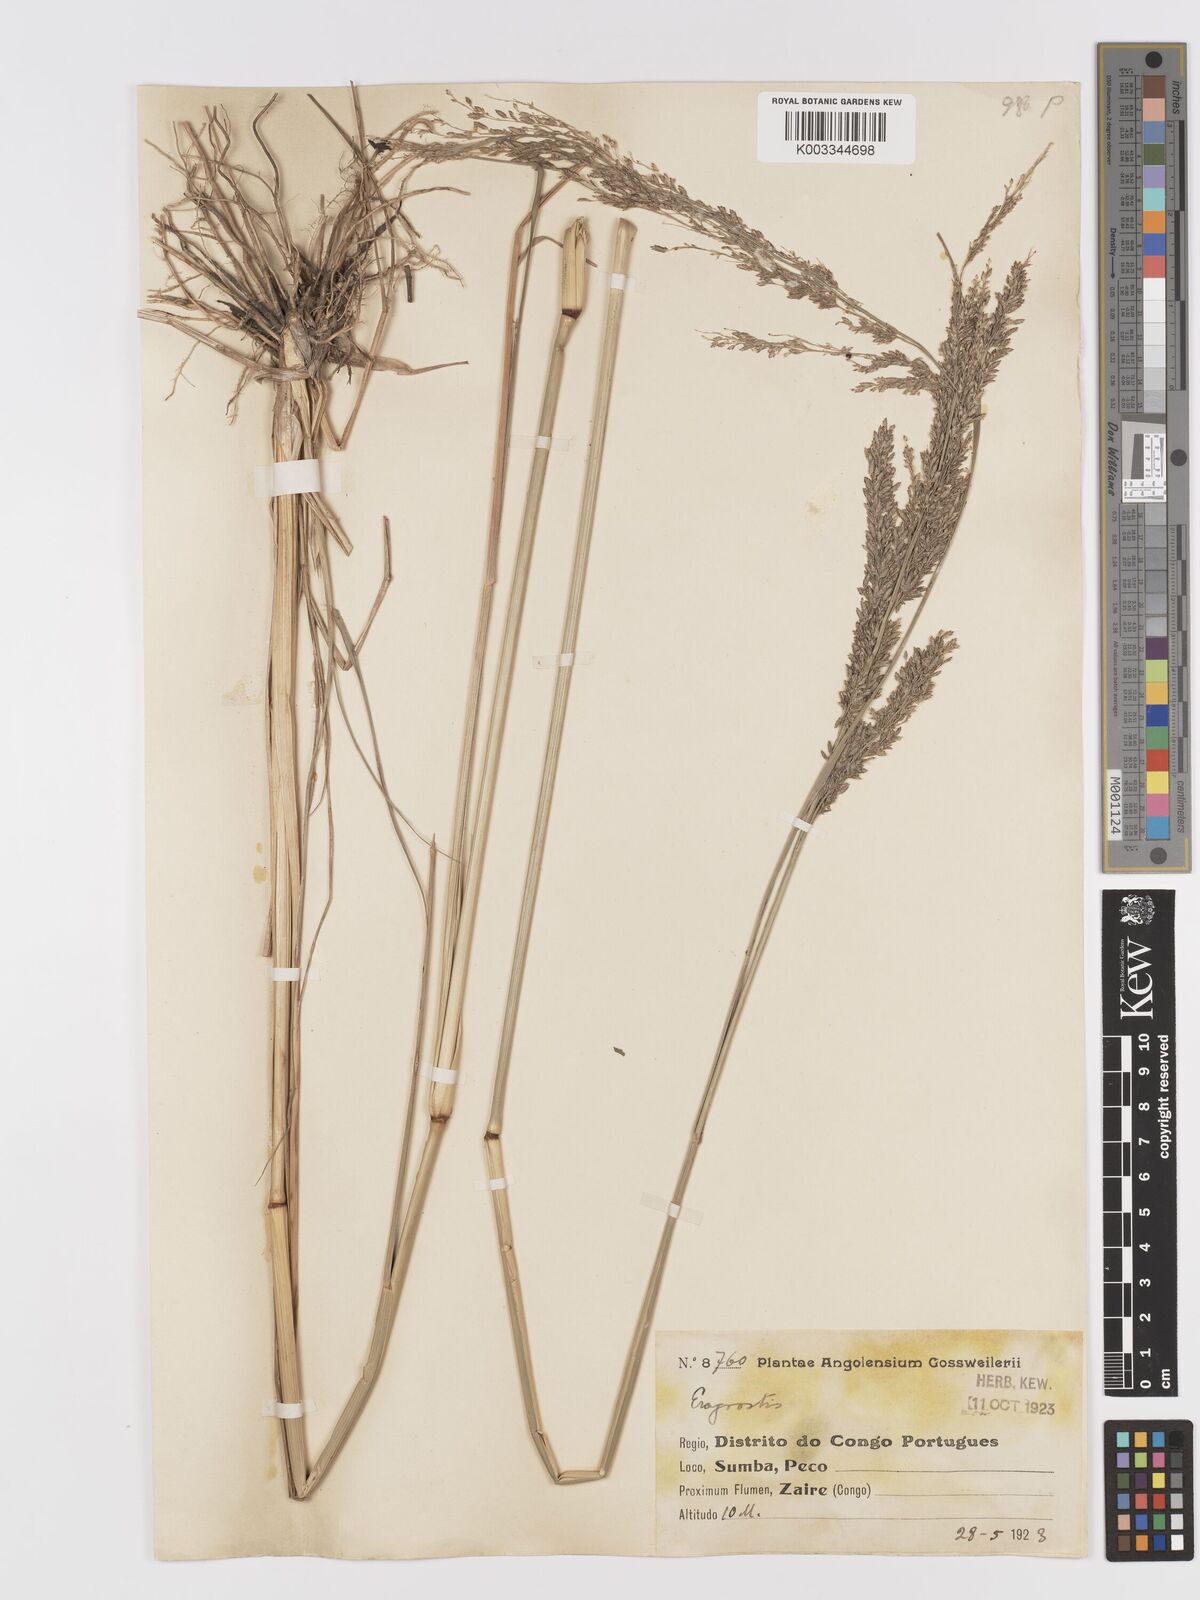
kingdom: Plantae
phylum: Tracheophyta
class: Liliopsida
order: Poales
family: Poaceae
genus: Eragrostis
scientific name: Eragrostis atrovirens
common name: Thalia lovegrass
